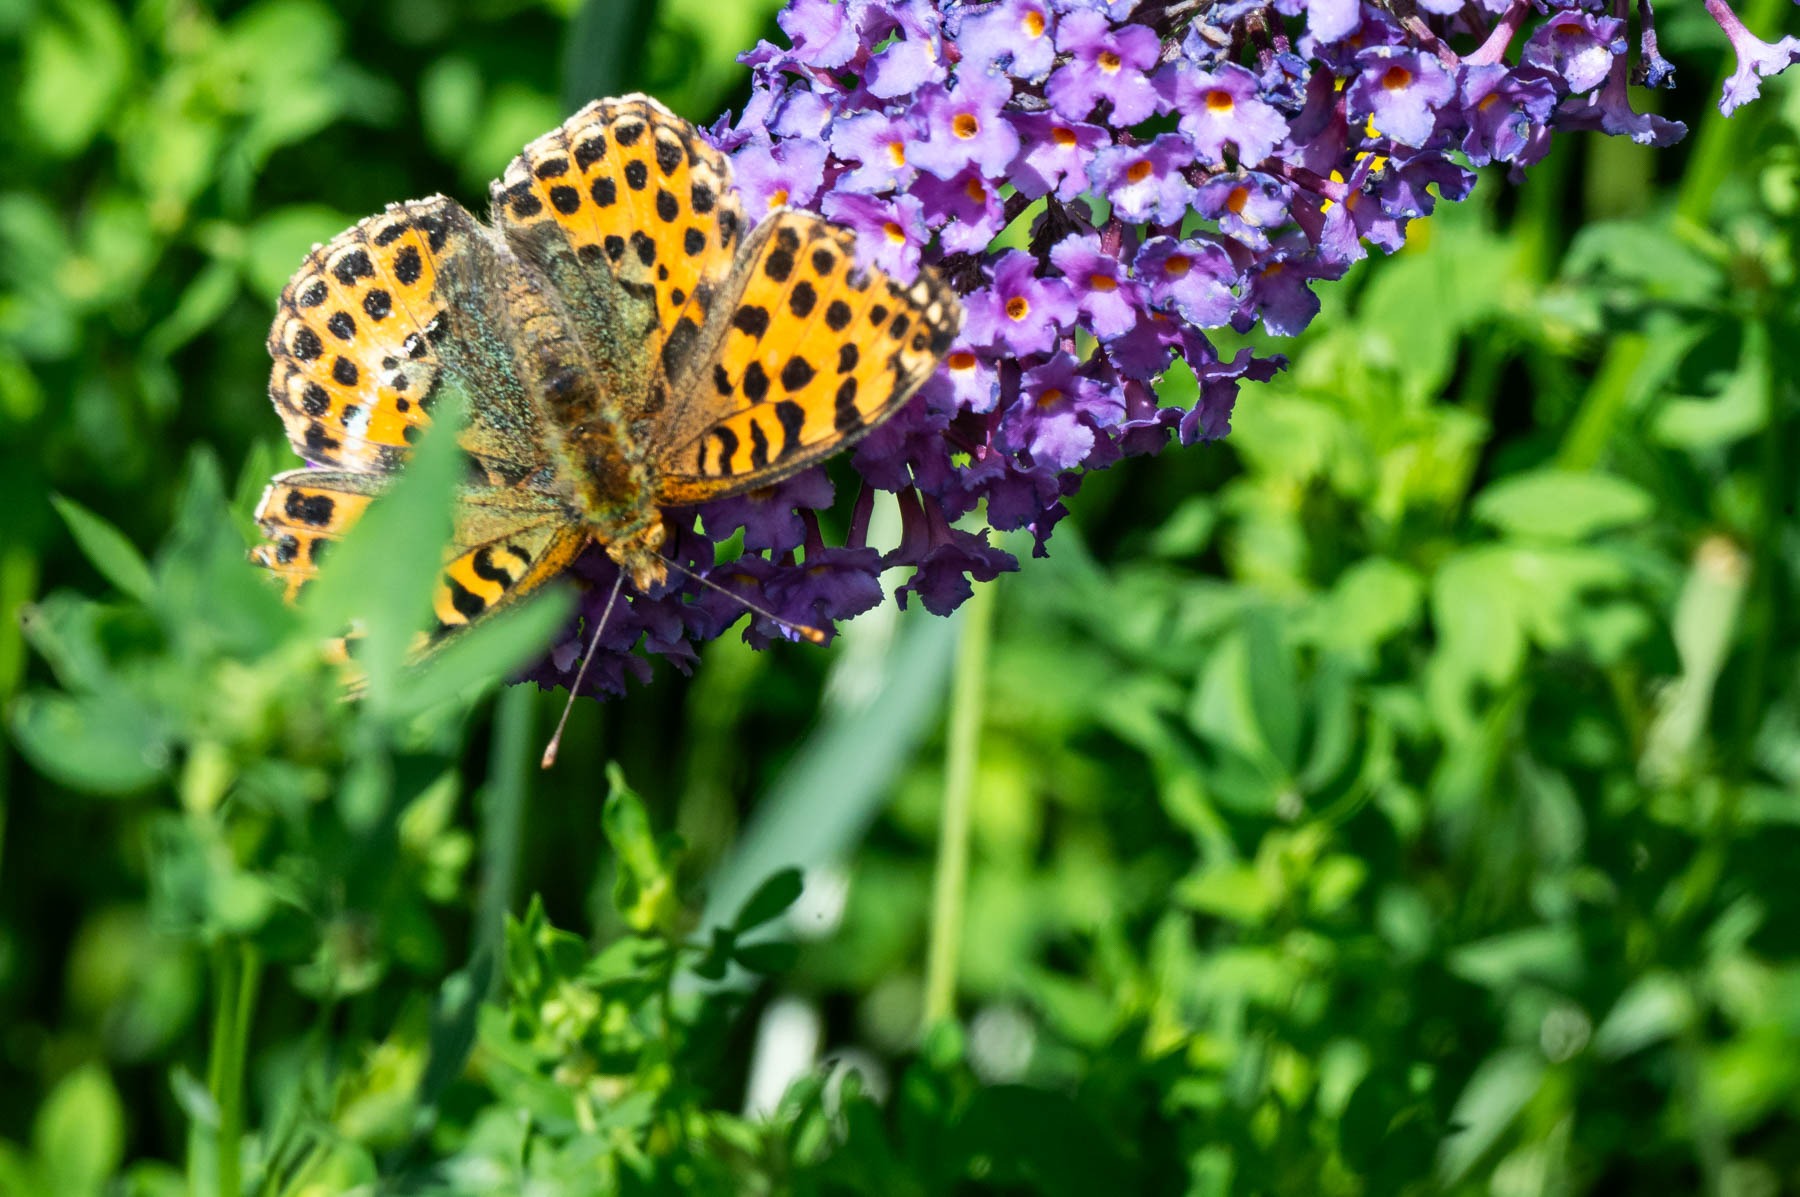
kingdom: Animalia
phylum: Arthropoda
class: Insecta
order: Lepidoptera
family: Nymphalidae
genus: Issoria
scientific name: Issoria lathonia
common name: Storplettet perlemorsommerfugl
